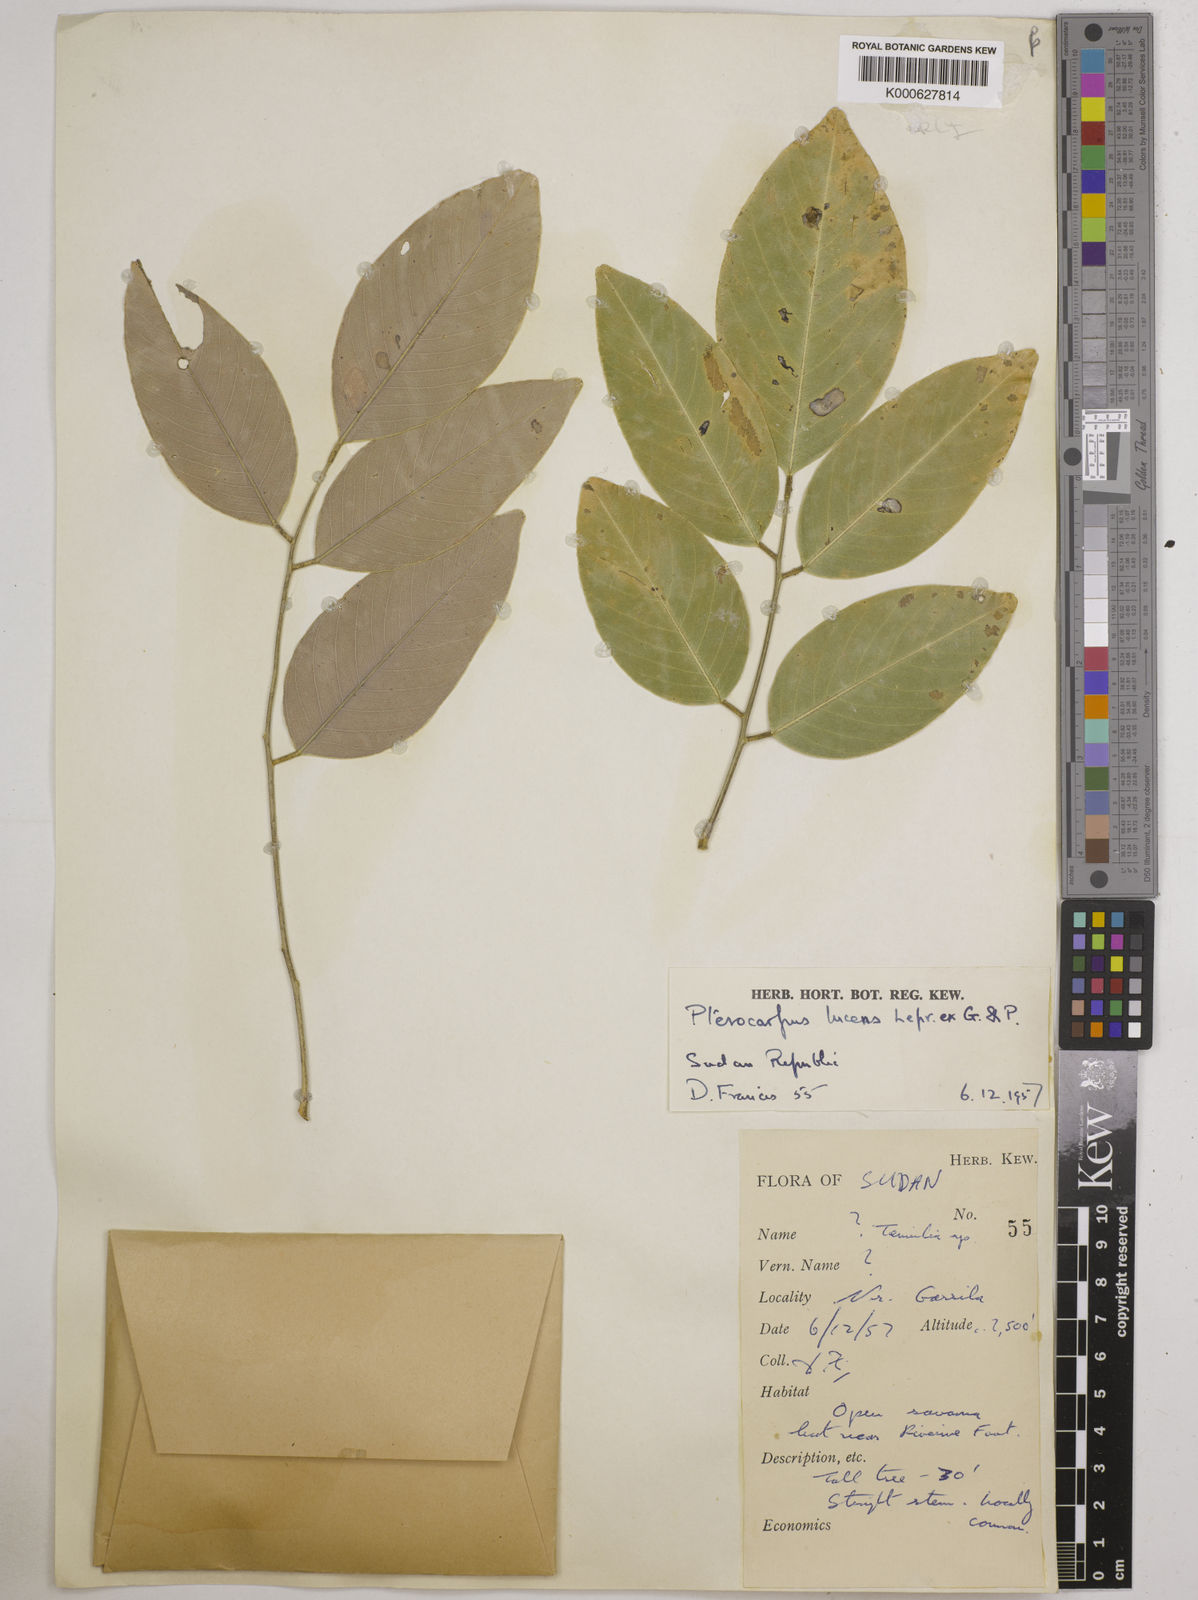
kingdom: Plantae
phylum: Tracheophyta
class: Magnoliopsida
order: Fabales
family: Fabaceae
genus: Pterocarpus
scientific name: Pterocarpus lucens
